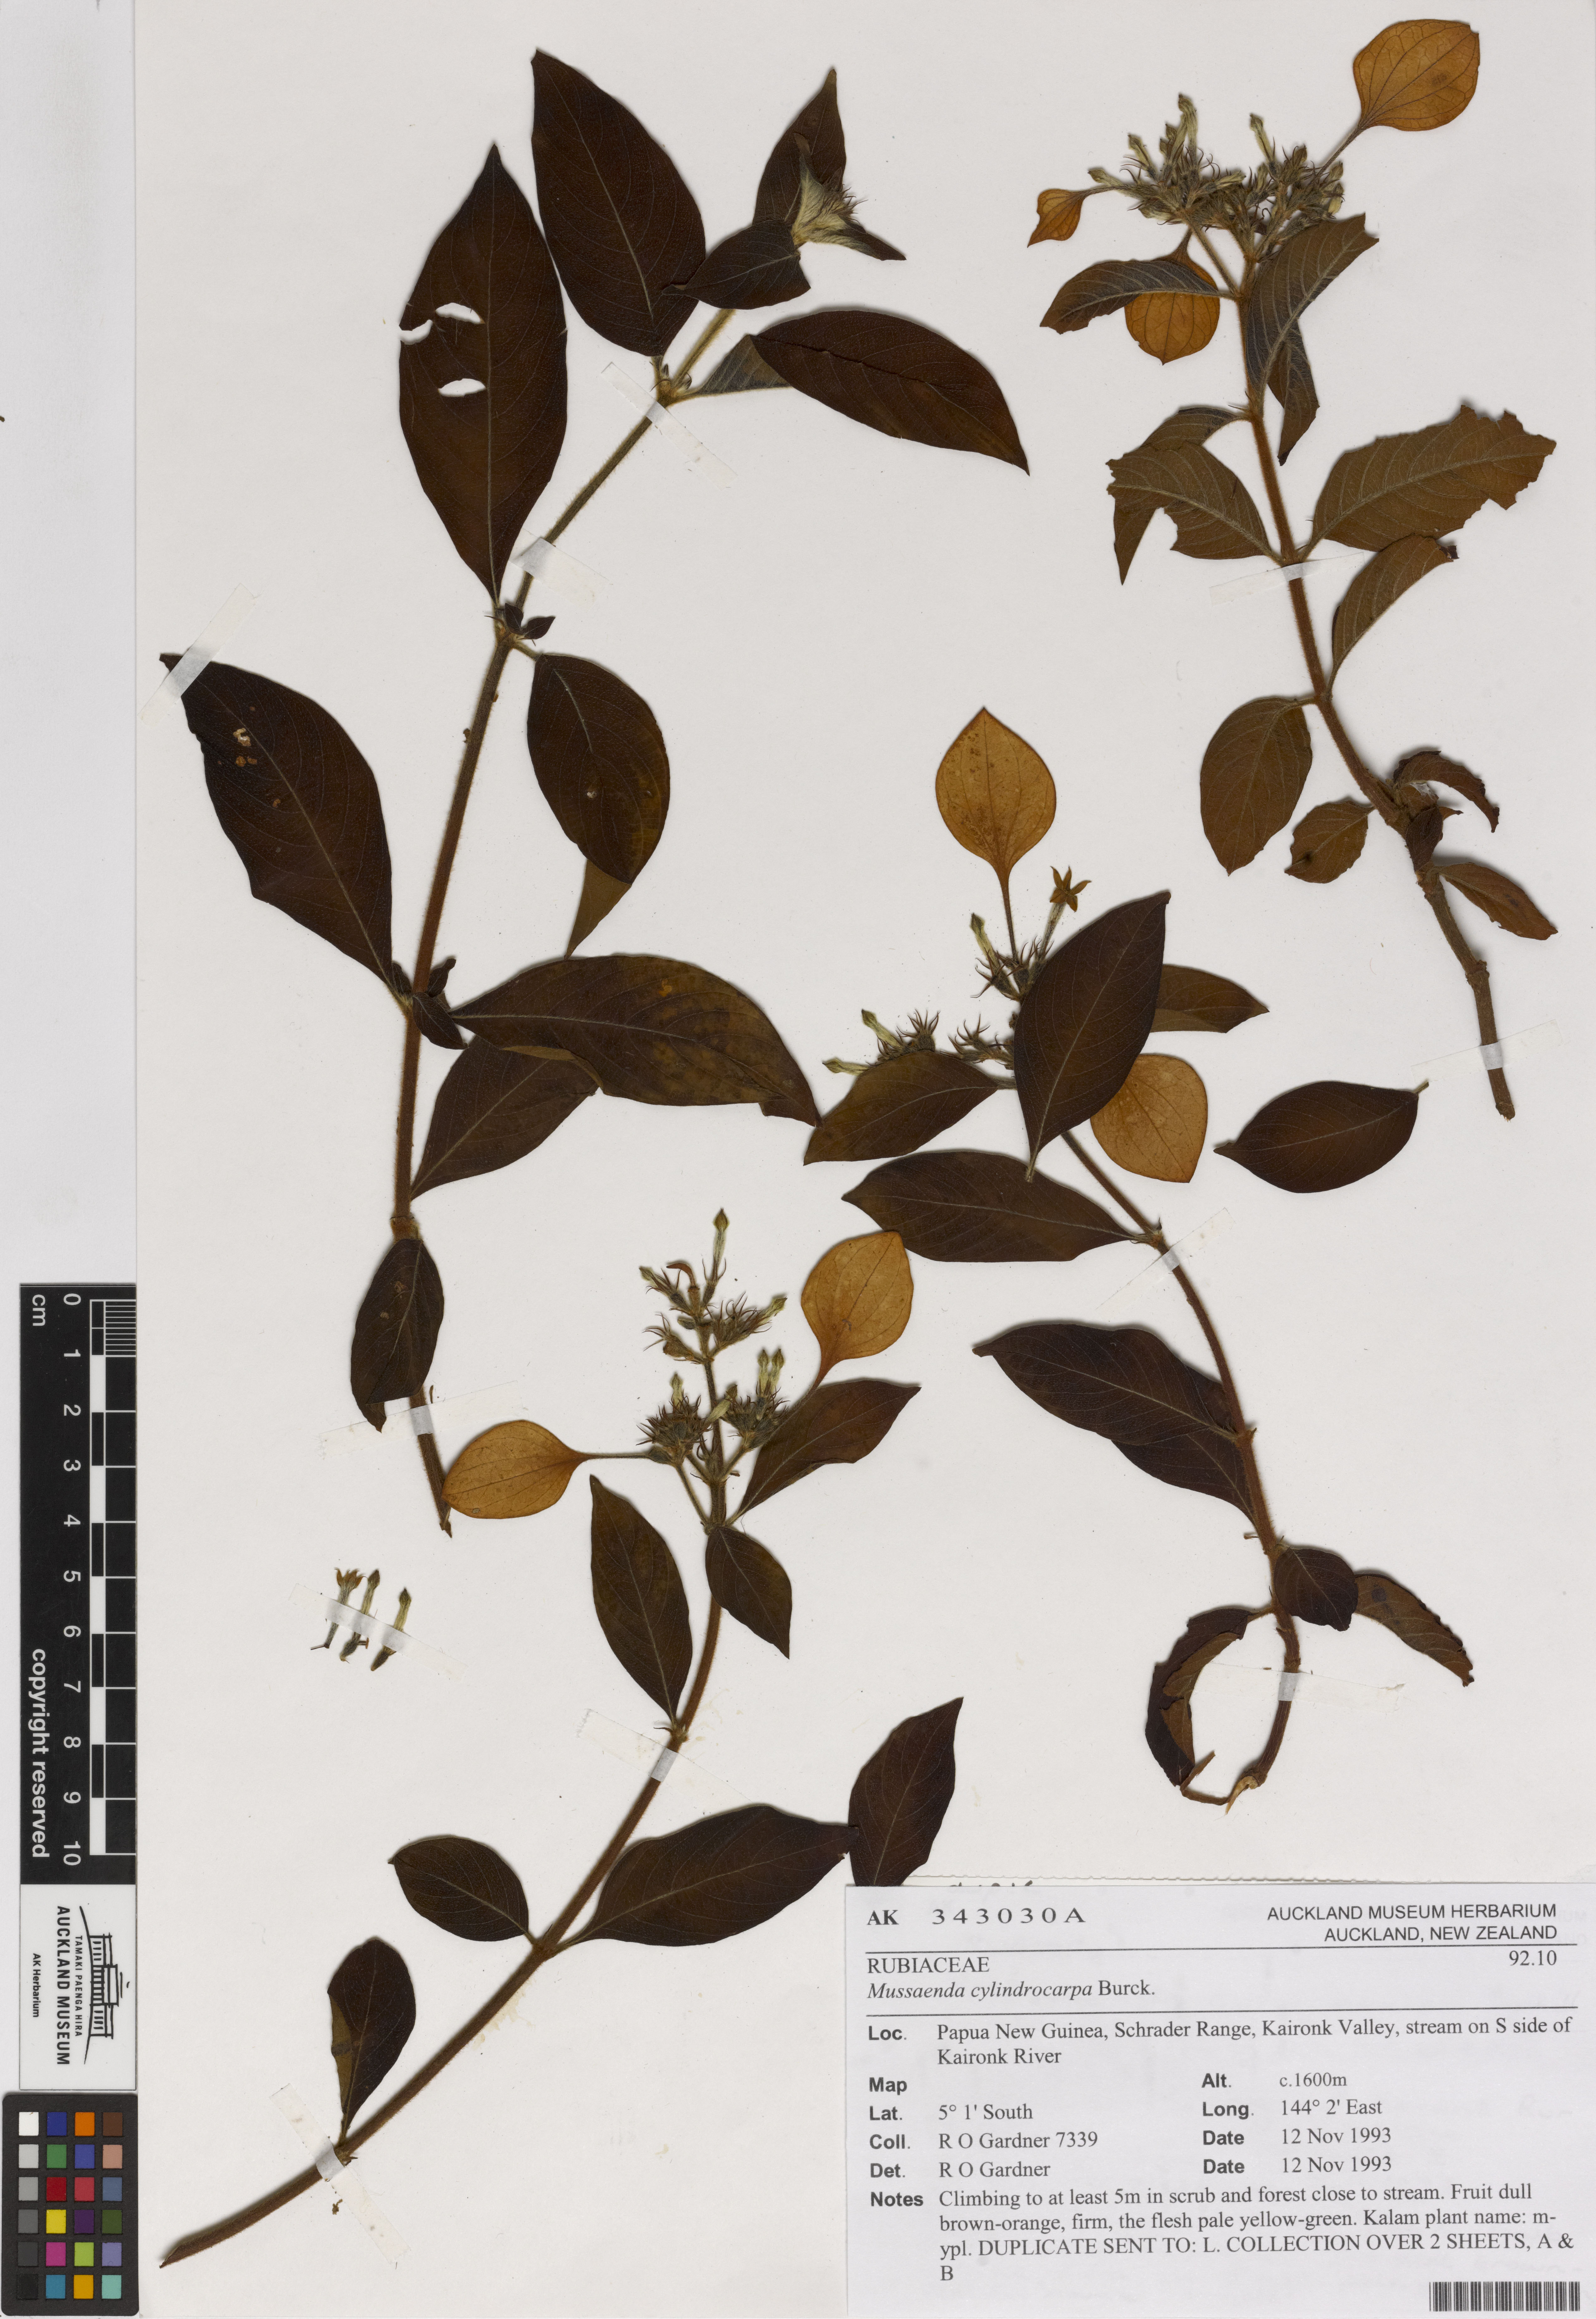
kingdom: Plantae
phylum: Tracheophyta
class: Magnoliopsida
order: Gentianales
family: Rubiaceae
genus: Mussaenda
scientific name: Mussaenda cylindrocarpa
